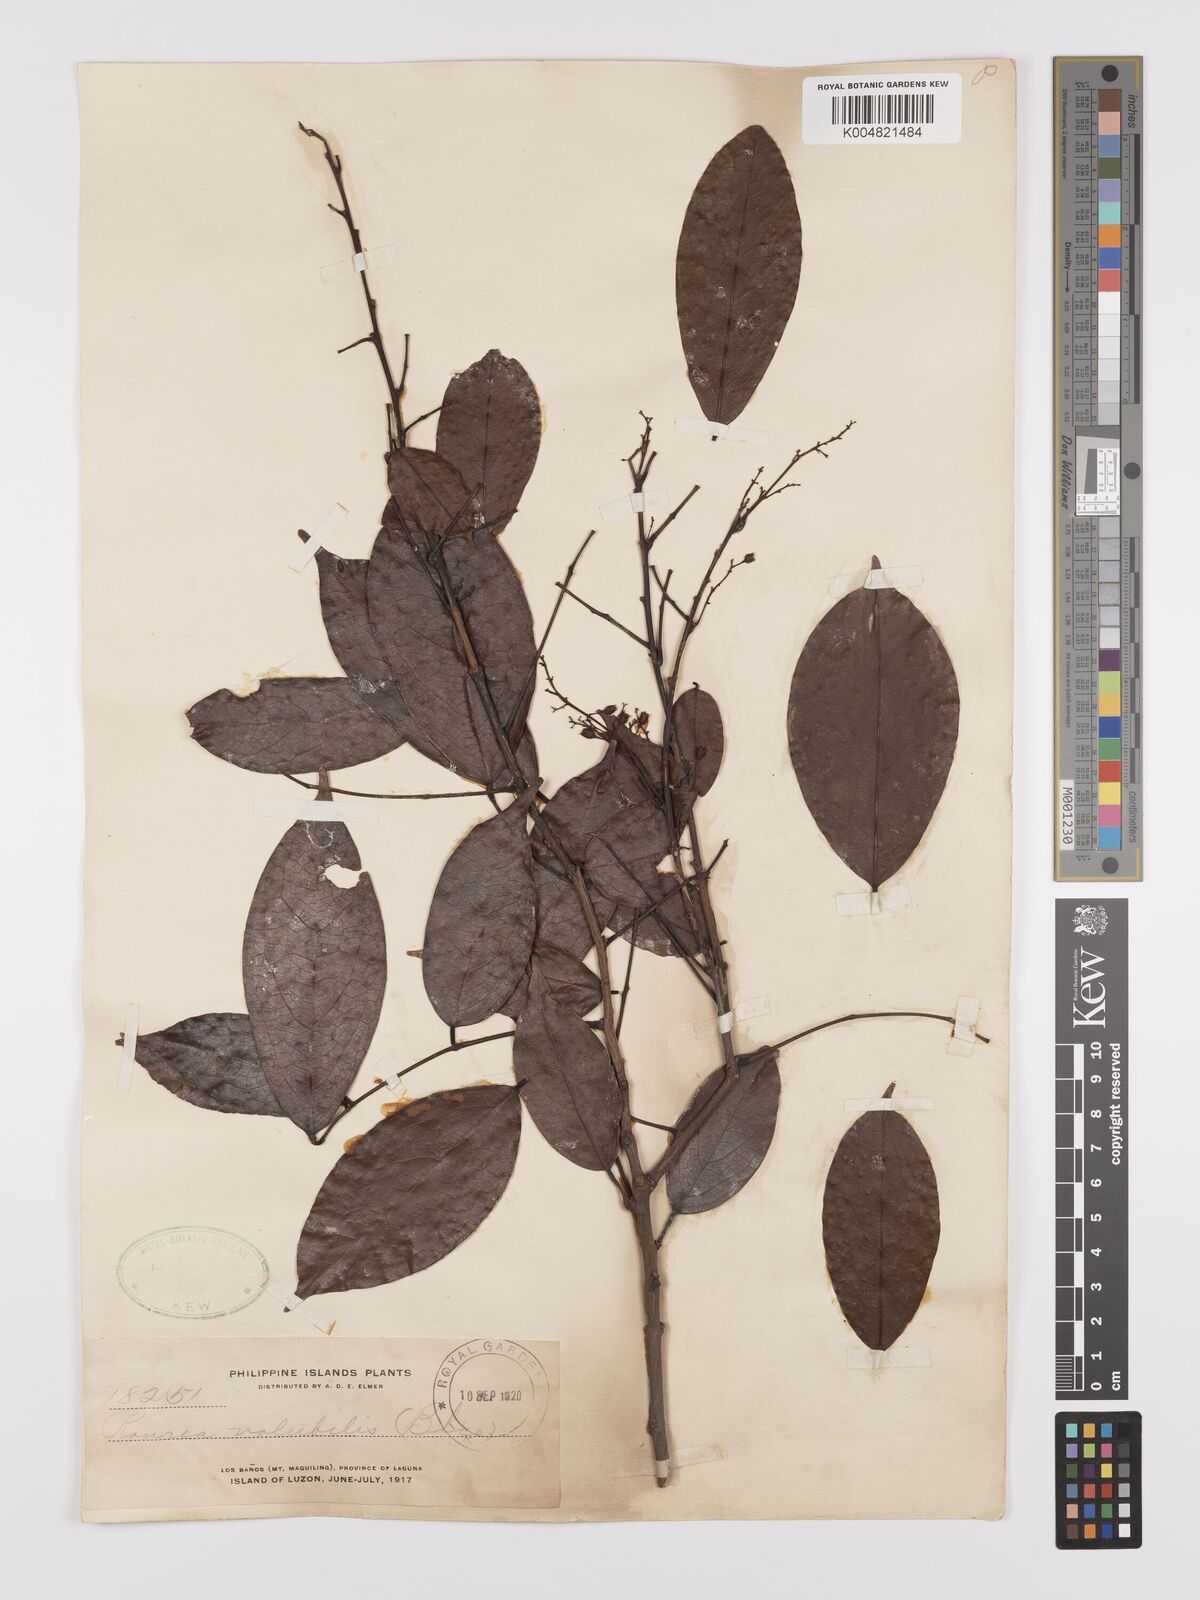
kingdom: Plantae
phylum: Tracheophyta
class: Magnoliopsida
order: Oxalidales
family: Connaraceae
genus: Rourea
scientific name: Rourea minor
